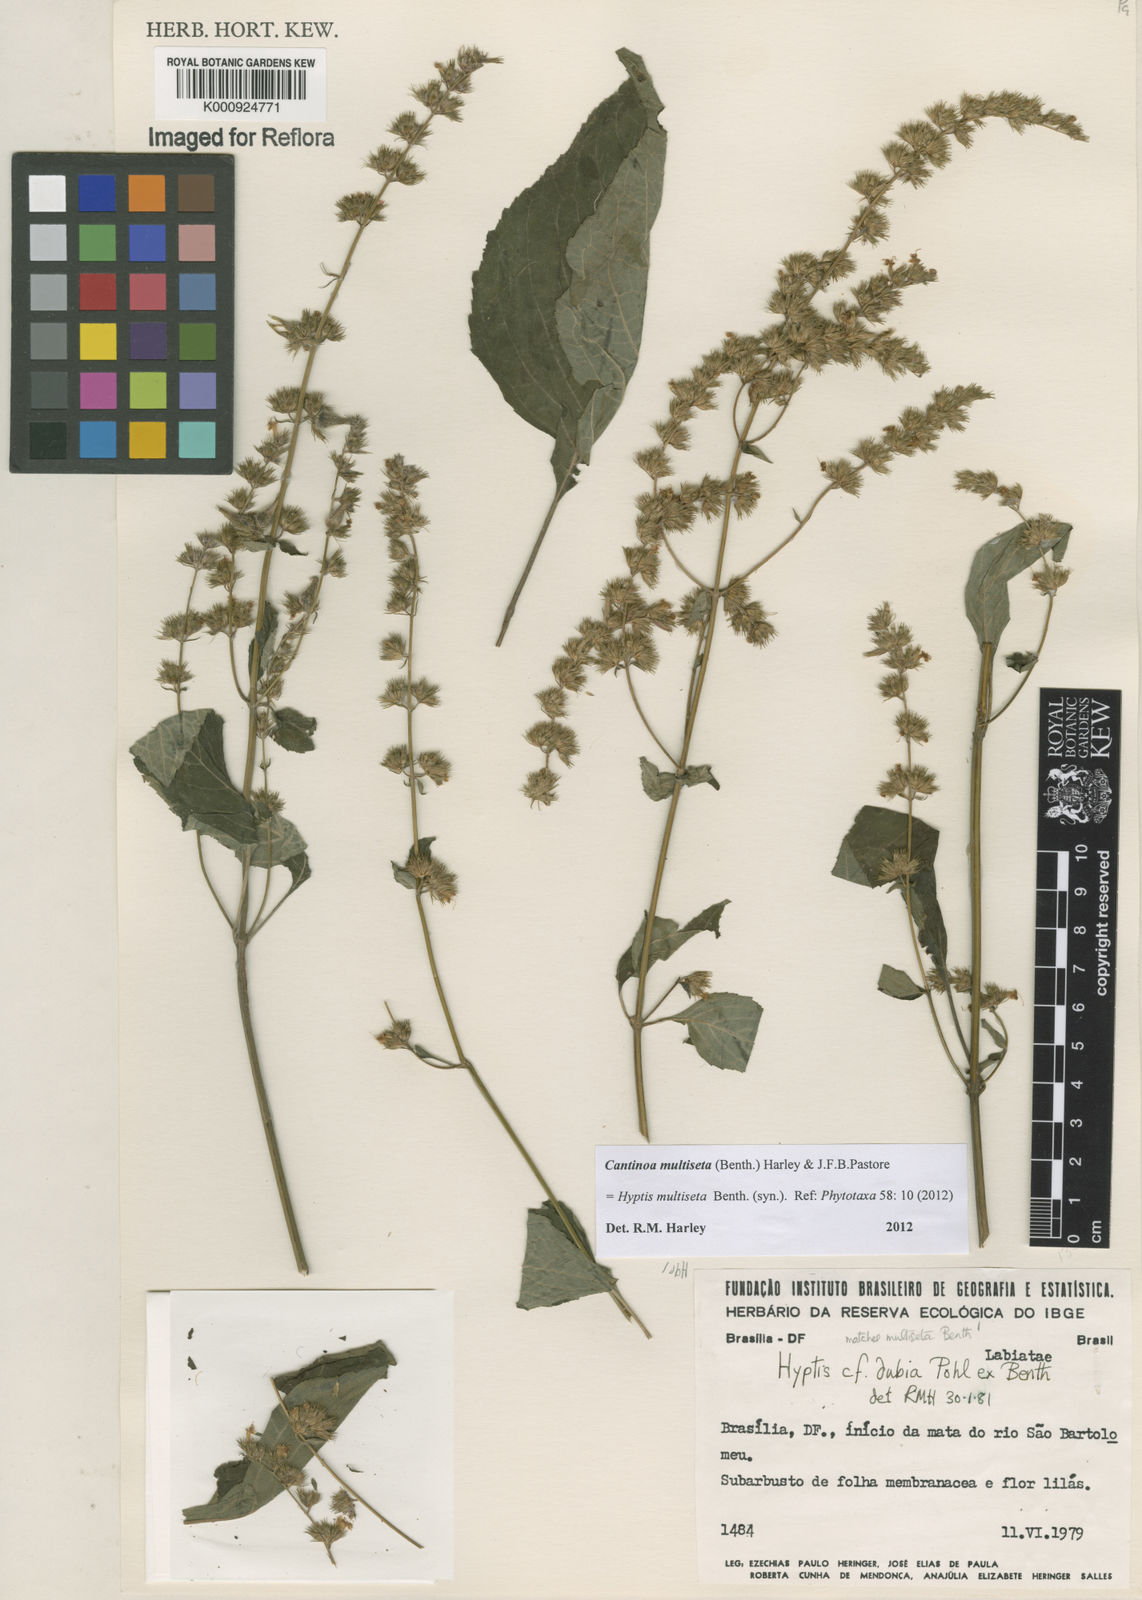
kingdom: Plantae
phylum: Tracheophyta
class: Magnoliopsida
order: Lamiales
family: Lamiaceae
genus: Cantinoa
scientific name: Cantinoa multiseta
